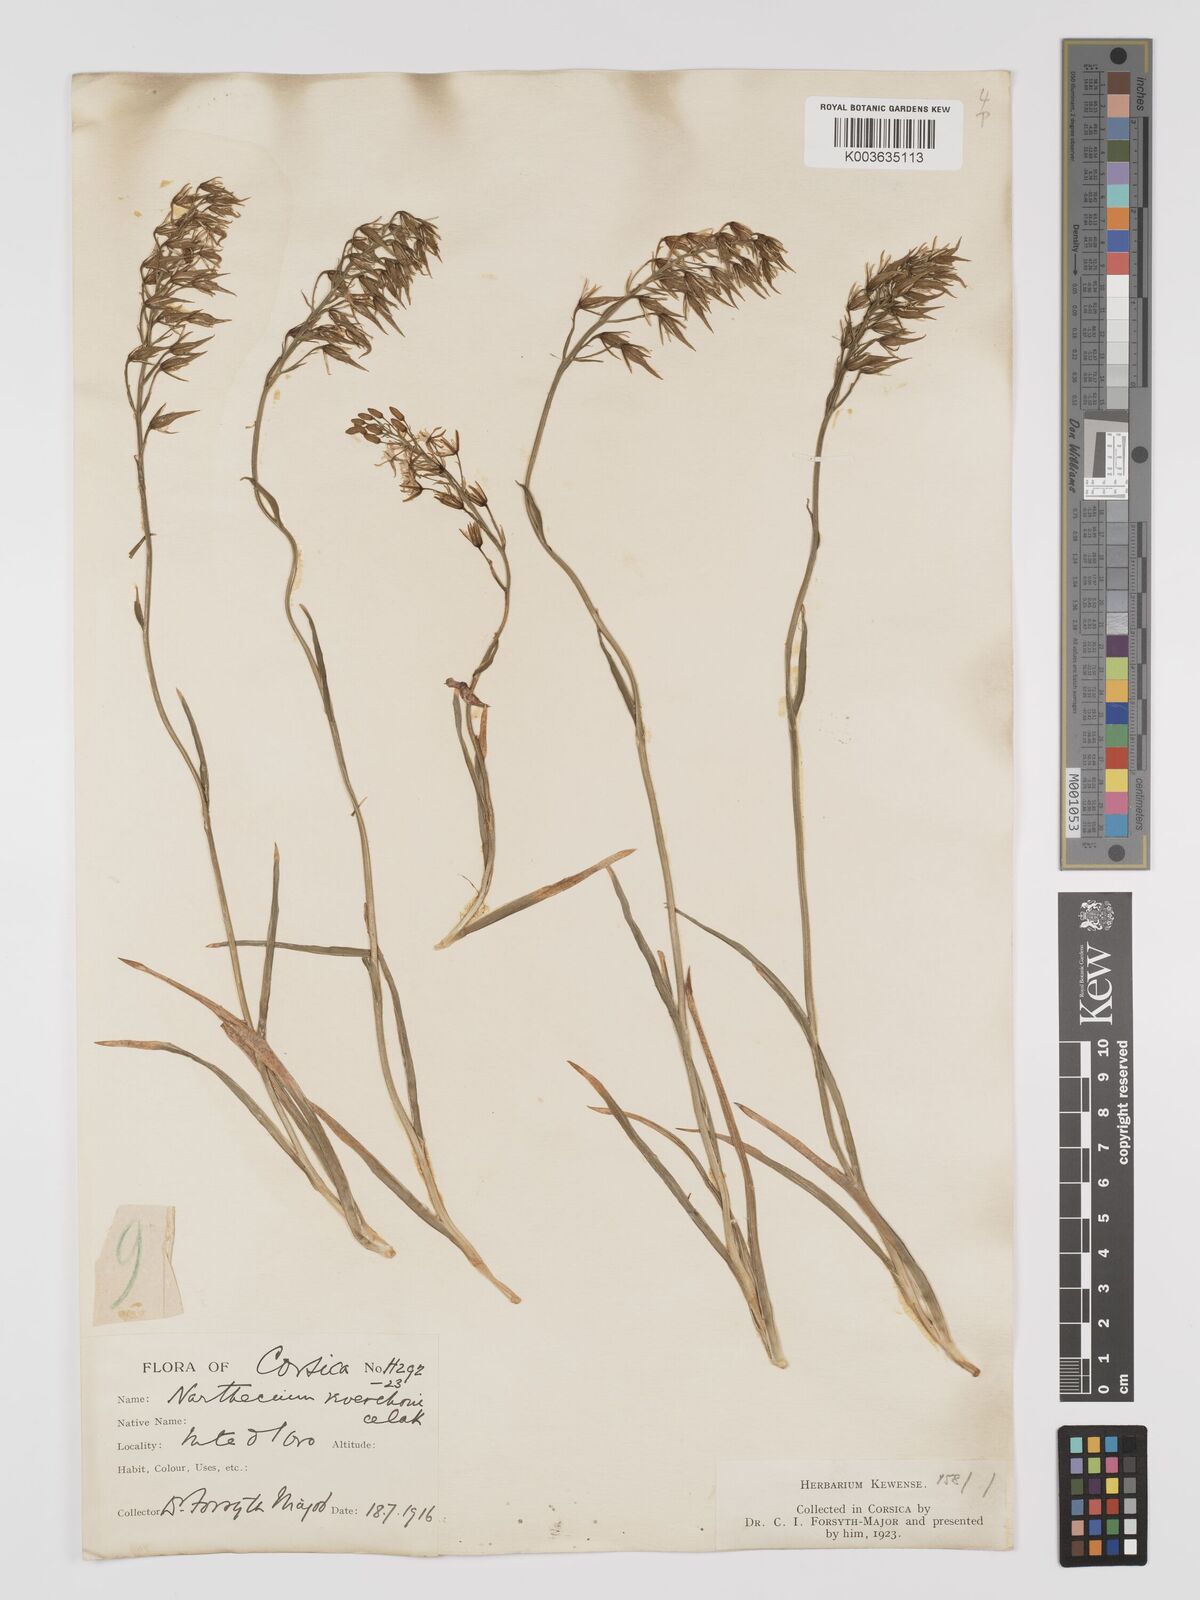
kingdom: Plantae
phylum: Tracheophyta
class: Liliopsida
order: Dioscoreales
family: Nartheciaceae
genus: Narthecium
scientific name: Narthecium reverchonii
